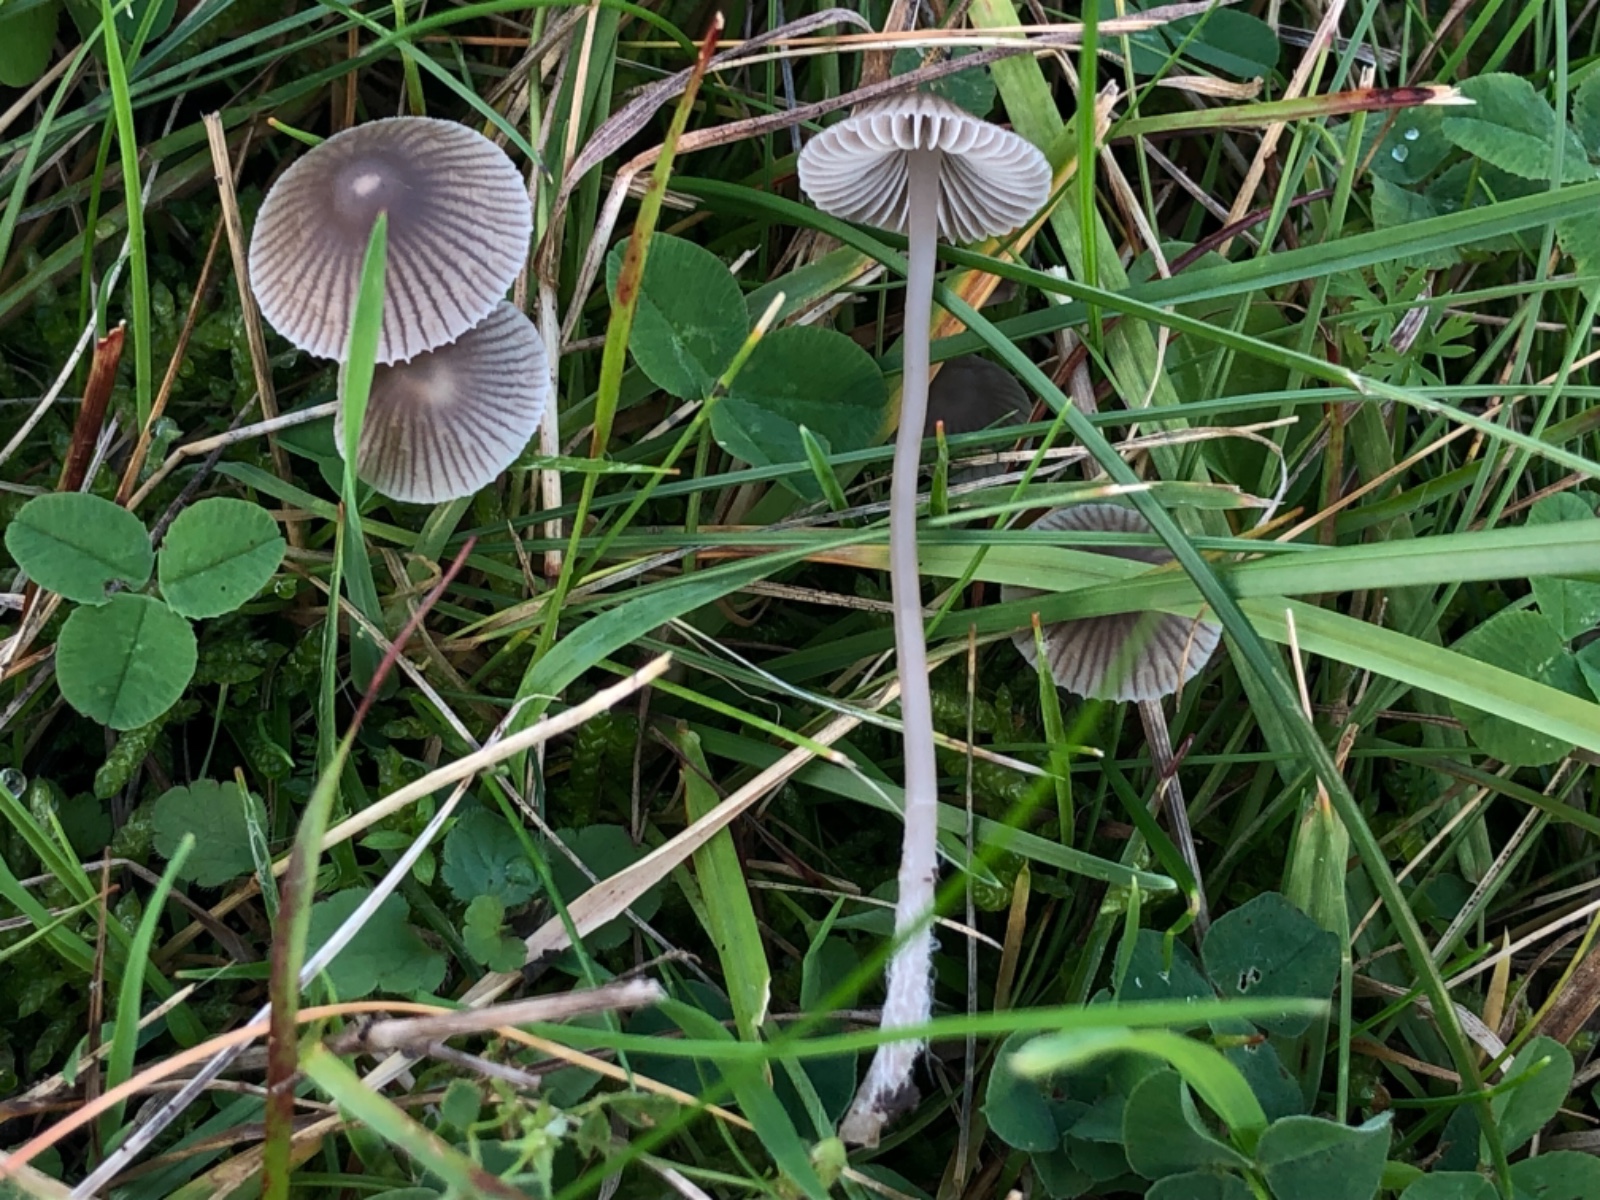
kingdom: Fungi
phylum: Basidiomycota
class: Agaricomycetes
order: Agaricales
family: Mycenaceae
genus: Mycena
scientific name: Mycena aetites
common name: plæne-huesvamp
